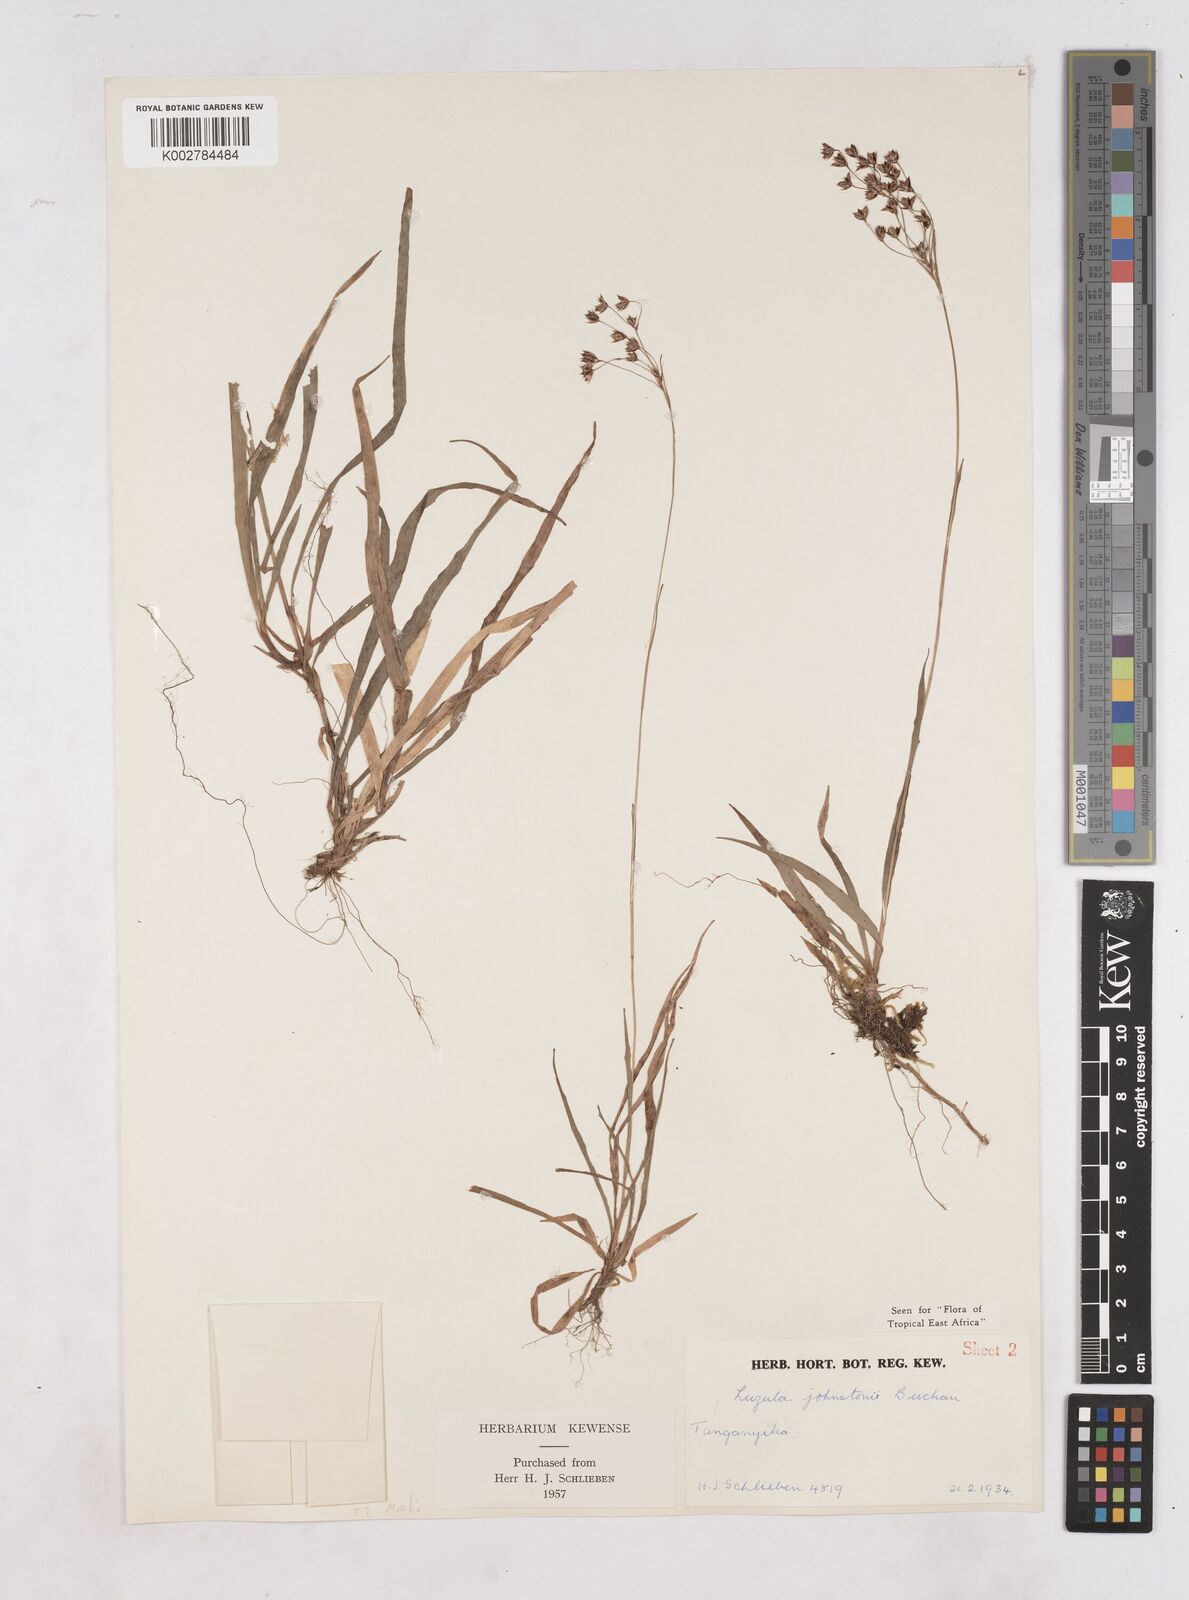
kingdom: Plantae
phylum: Tracheophyta
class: Liliopsida
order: Poales
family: Juncaceae
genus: Luzula
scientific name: Luzula johnstonii
